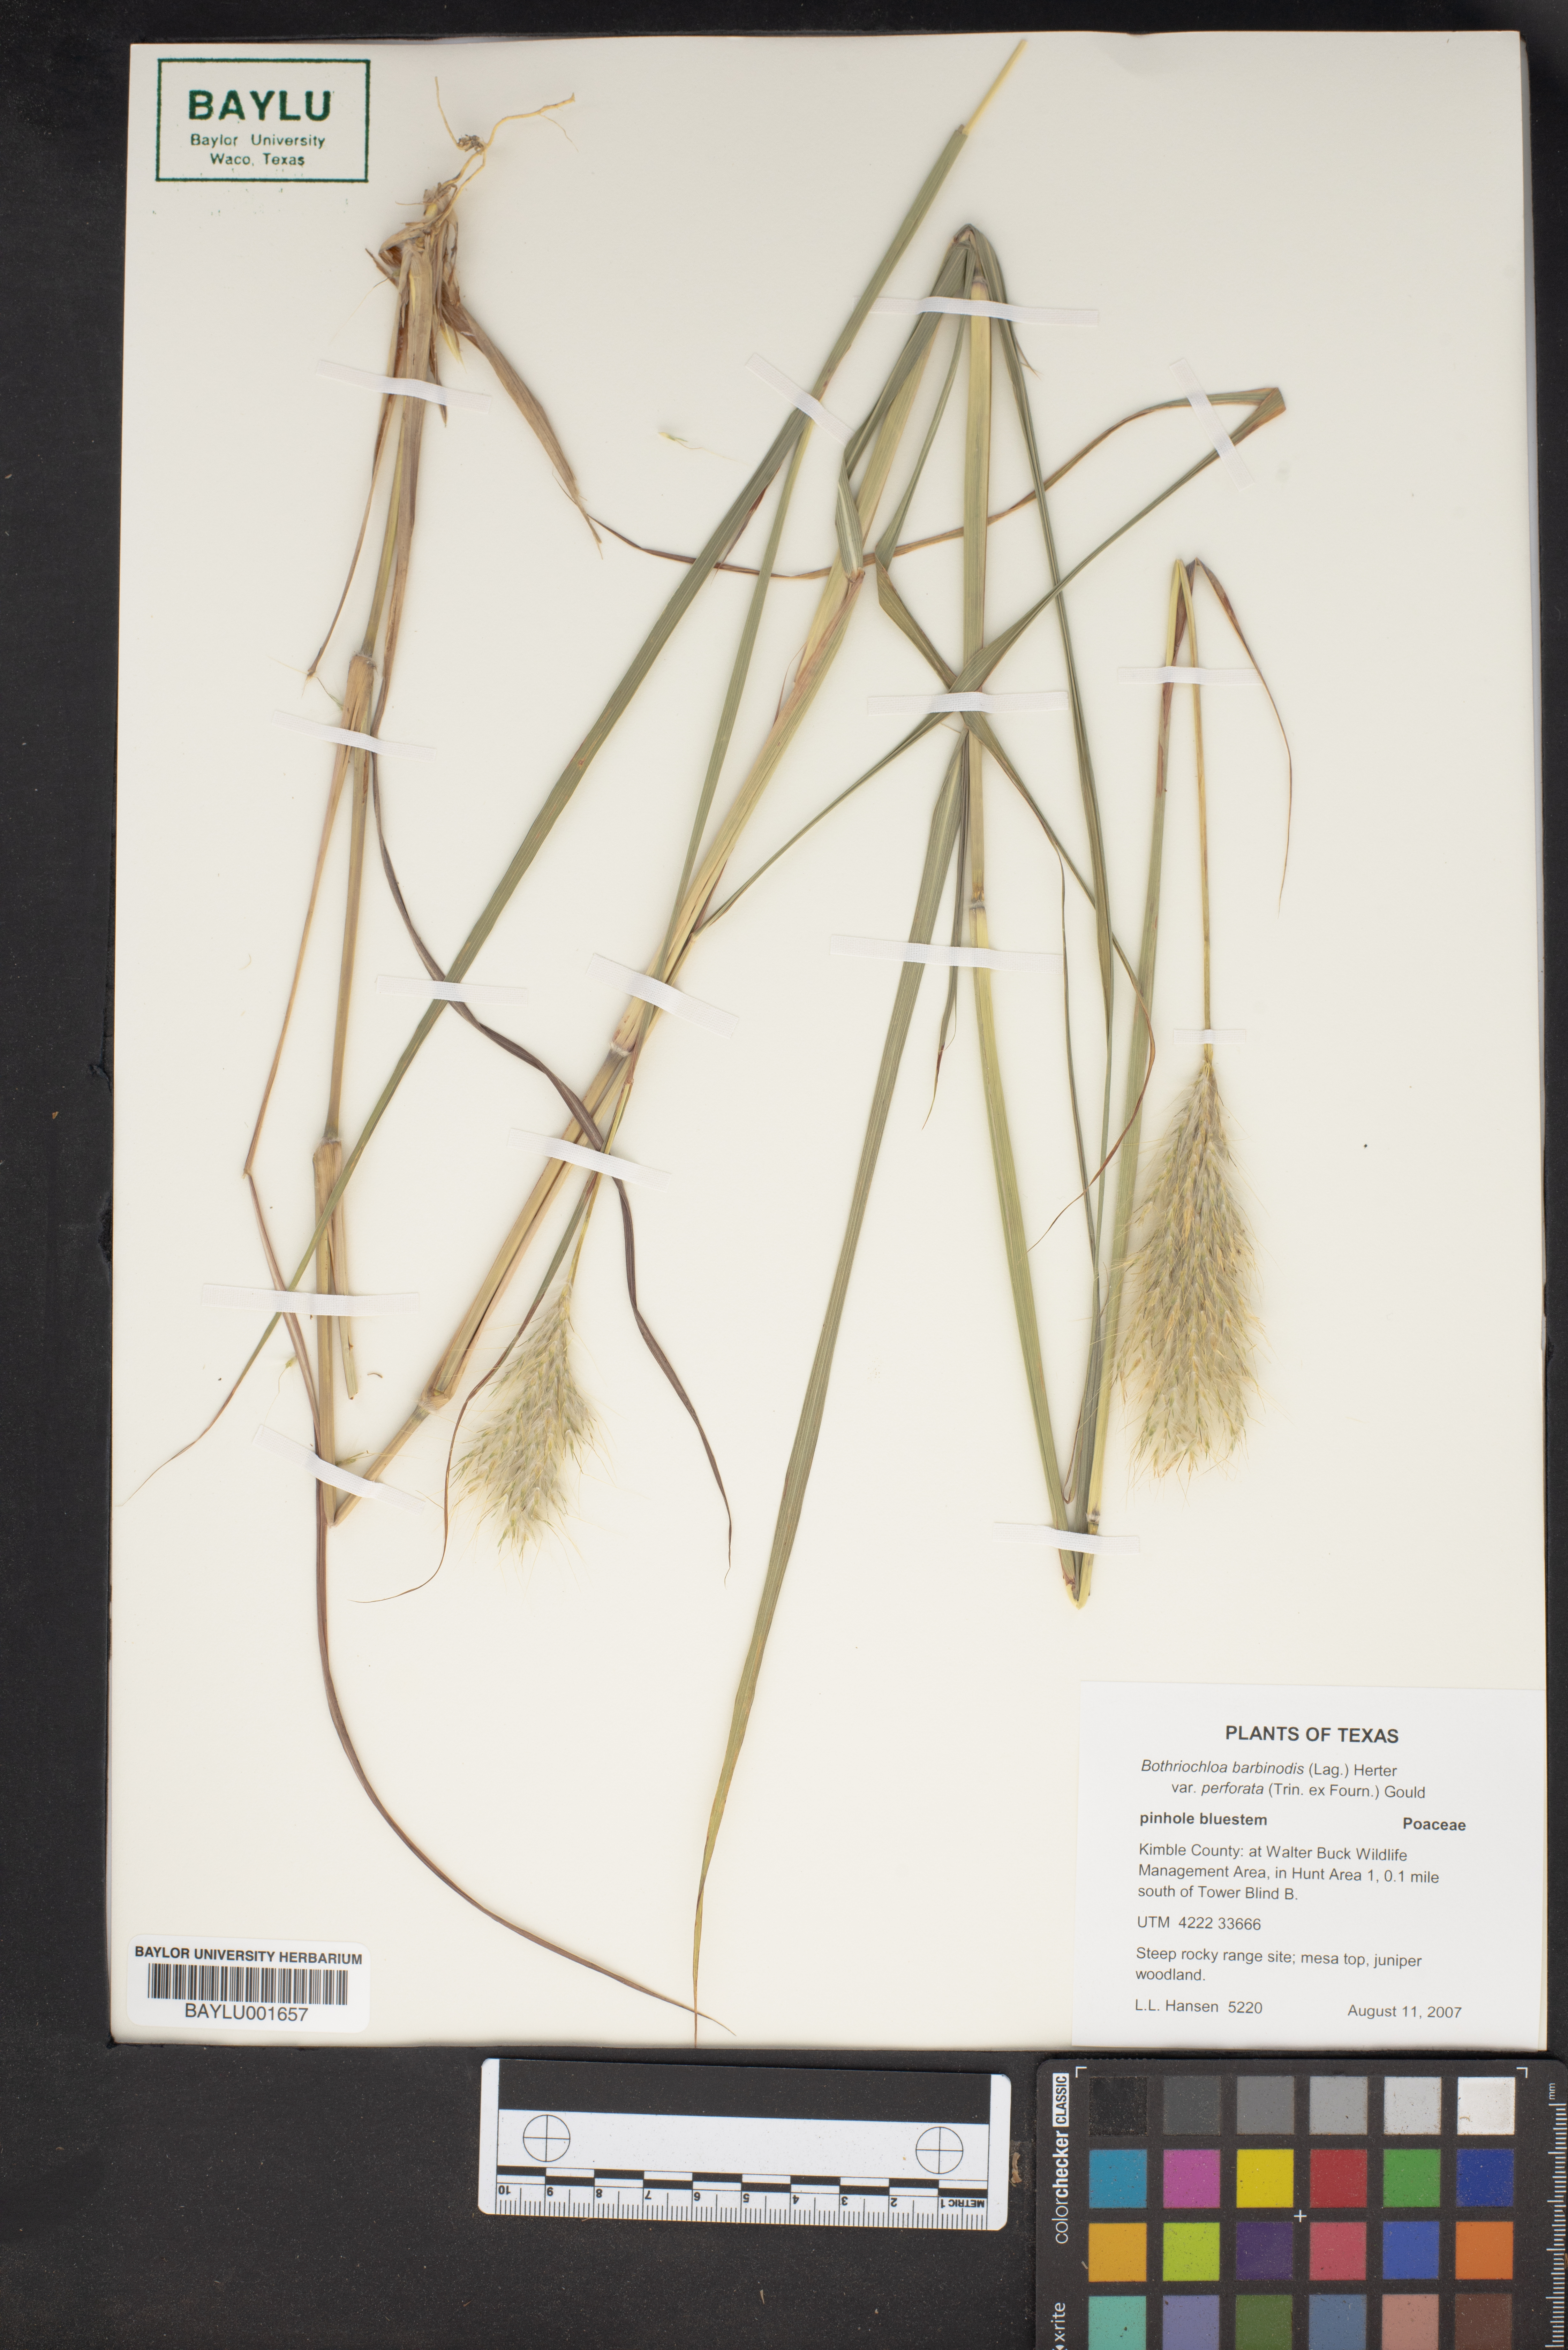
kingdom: Plantae
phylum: Tracheophyta
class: Liliopsida
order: Poales
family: Poaceae
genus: Bothriochloa
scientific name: Bothriochloa barbinodis
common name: Cane bluestem
